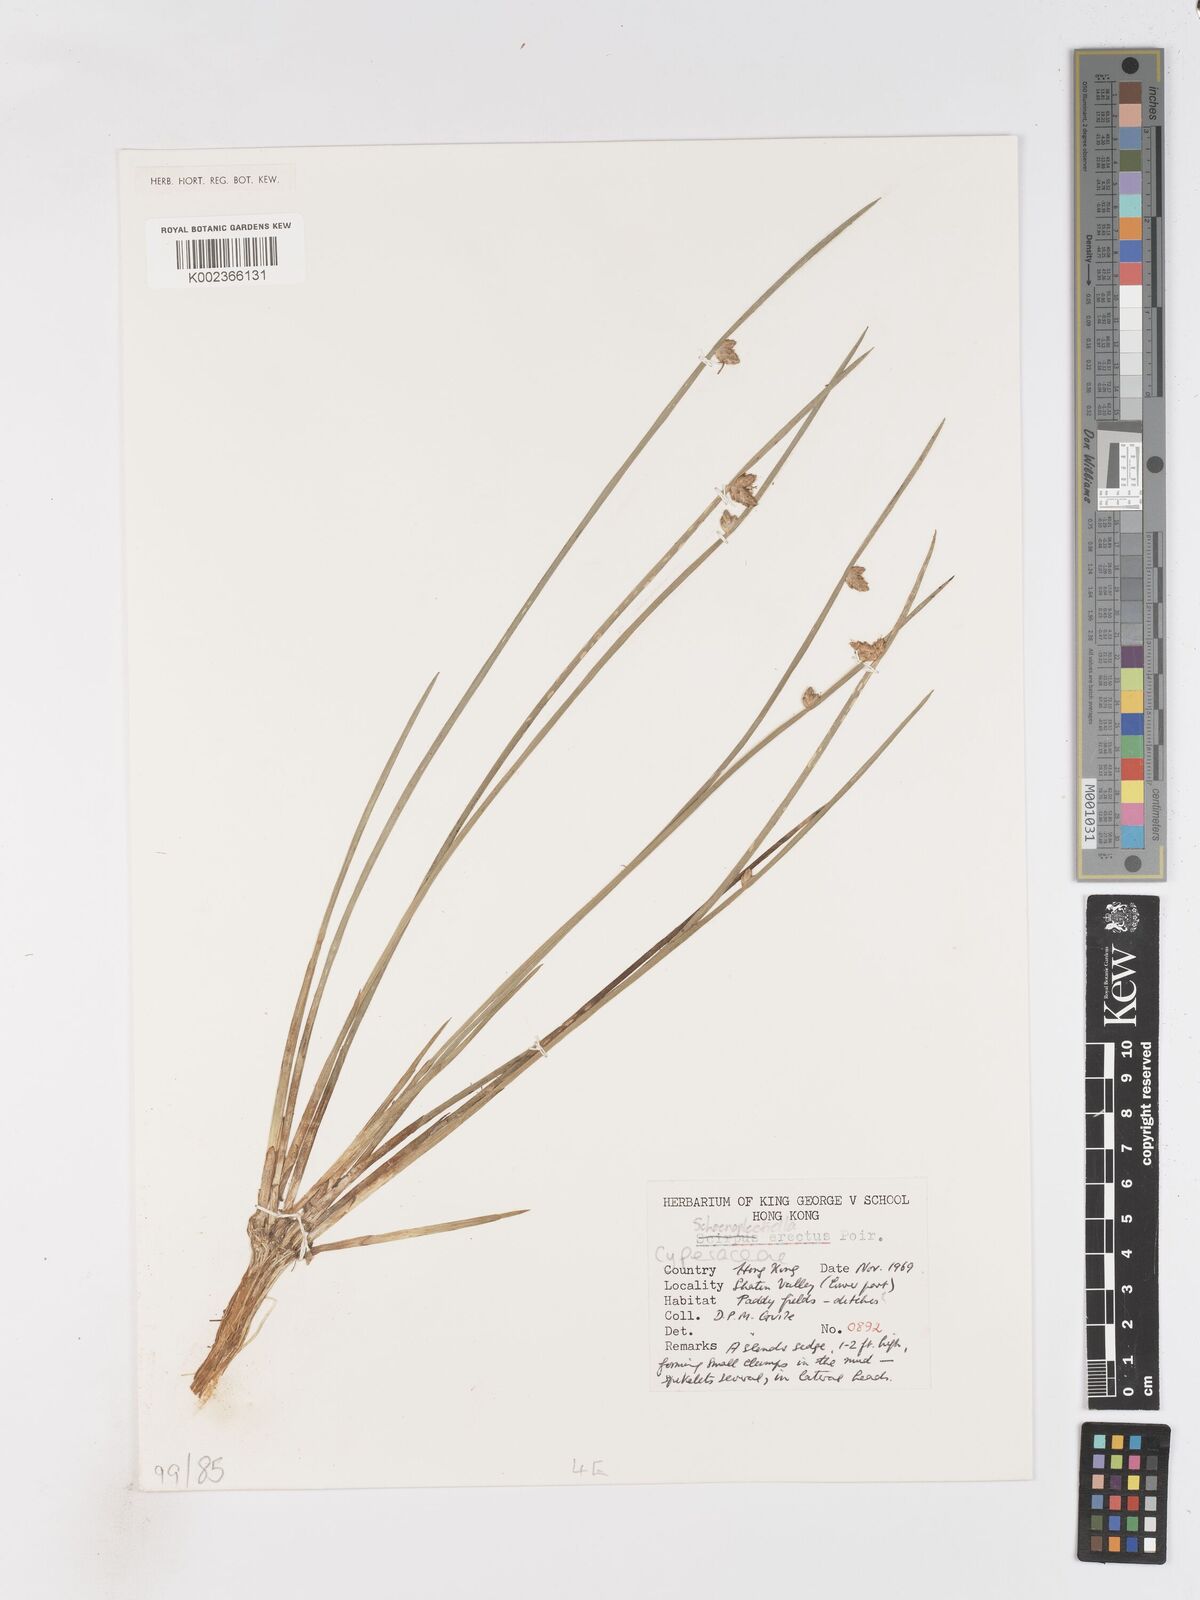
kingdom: Plantae
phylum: Tracheophyta
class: Liliopsida
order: Poales
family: Cyperaceae
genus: Schoenoplectiella
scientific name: Schoenoplectiella erecta
